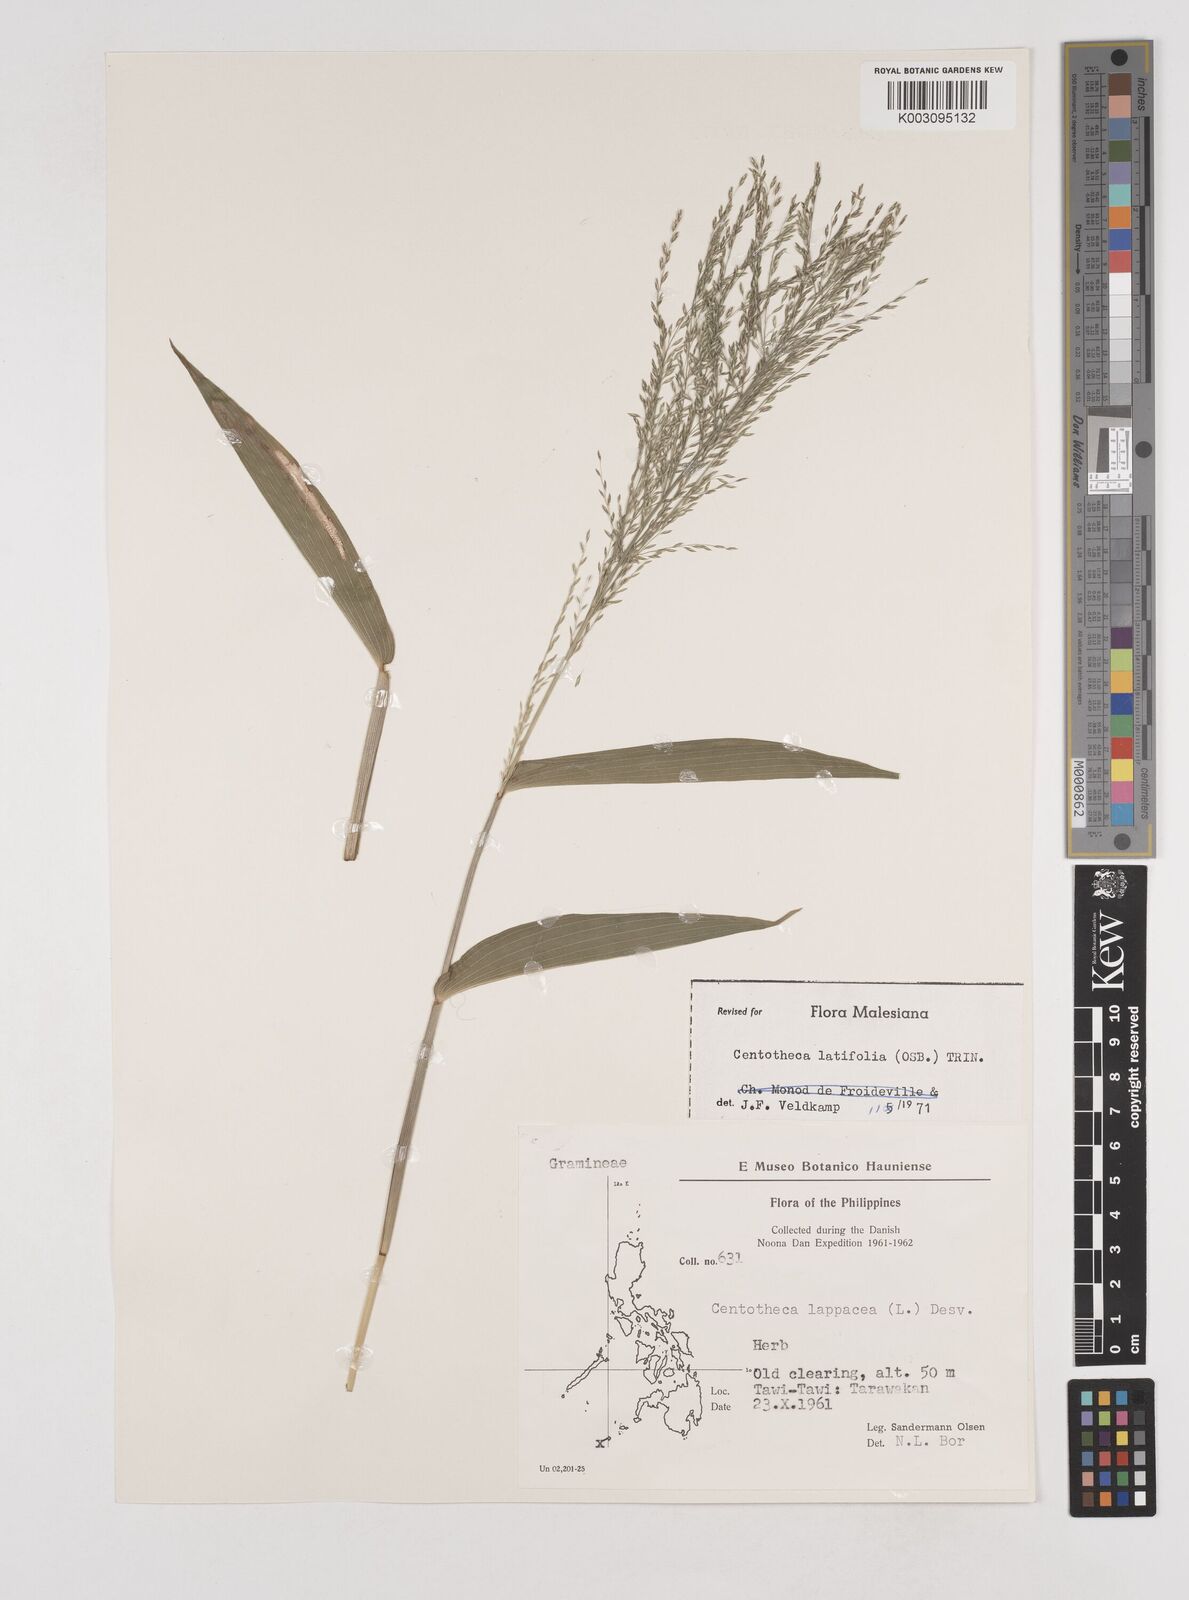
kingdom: Plantae
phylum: Tracheophyta
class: Liliopsida
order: Poales
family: Poaceae
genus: Centotheca
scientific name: Centotheca lappacea
